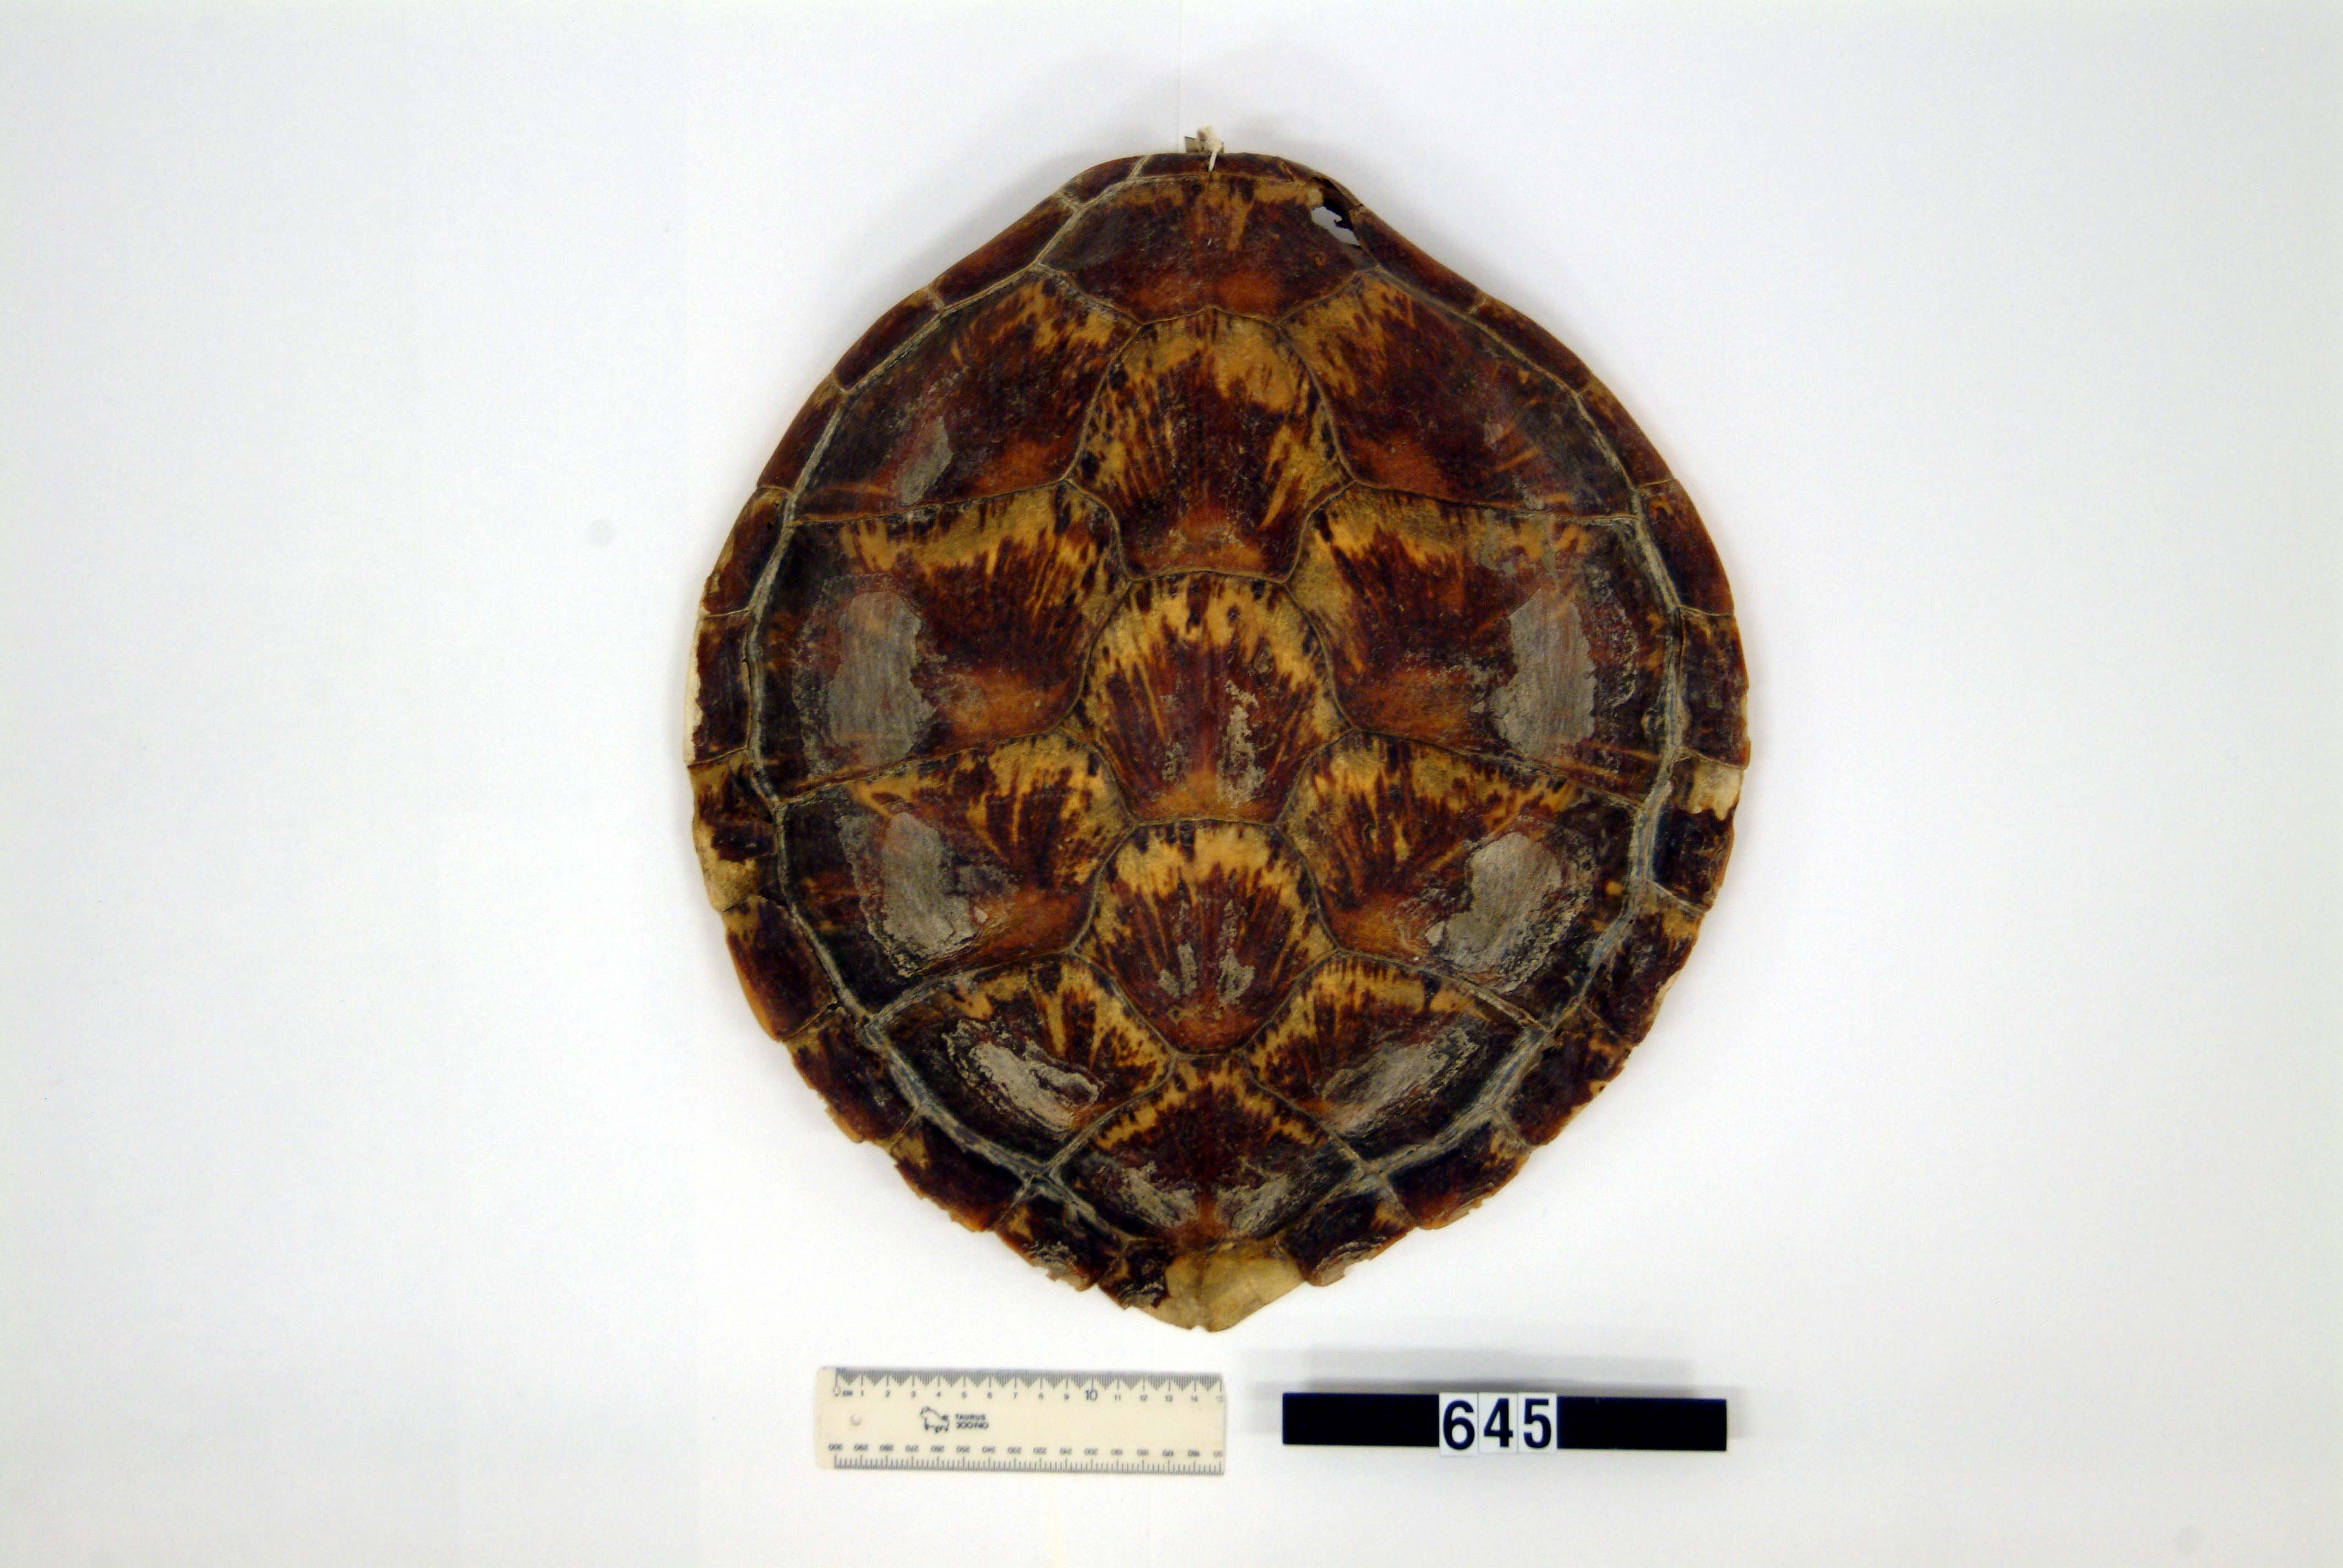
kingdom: Animalia
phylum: Chordata
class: Testudines
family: Cheloniidae
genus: Chelonia
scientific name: Chelonia mydas
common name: Green turtle
